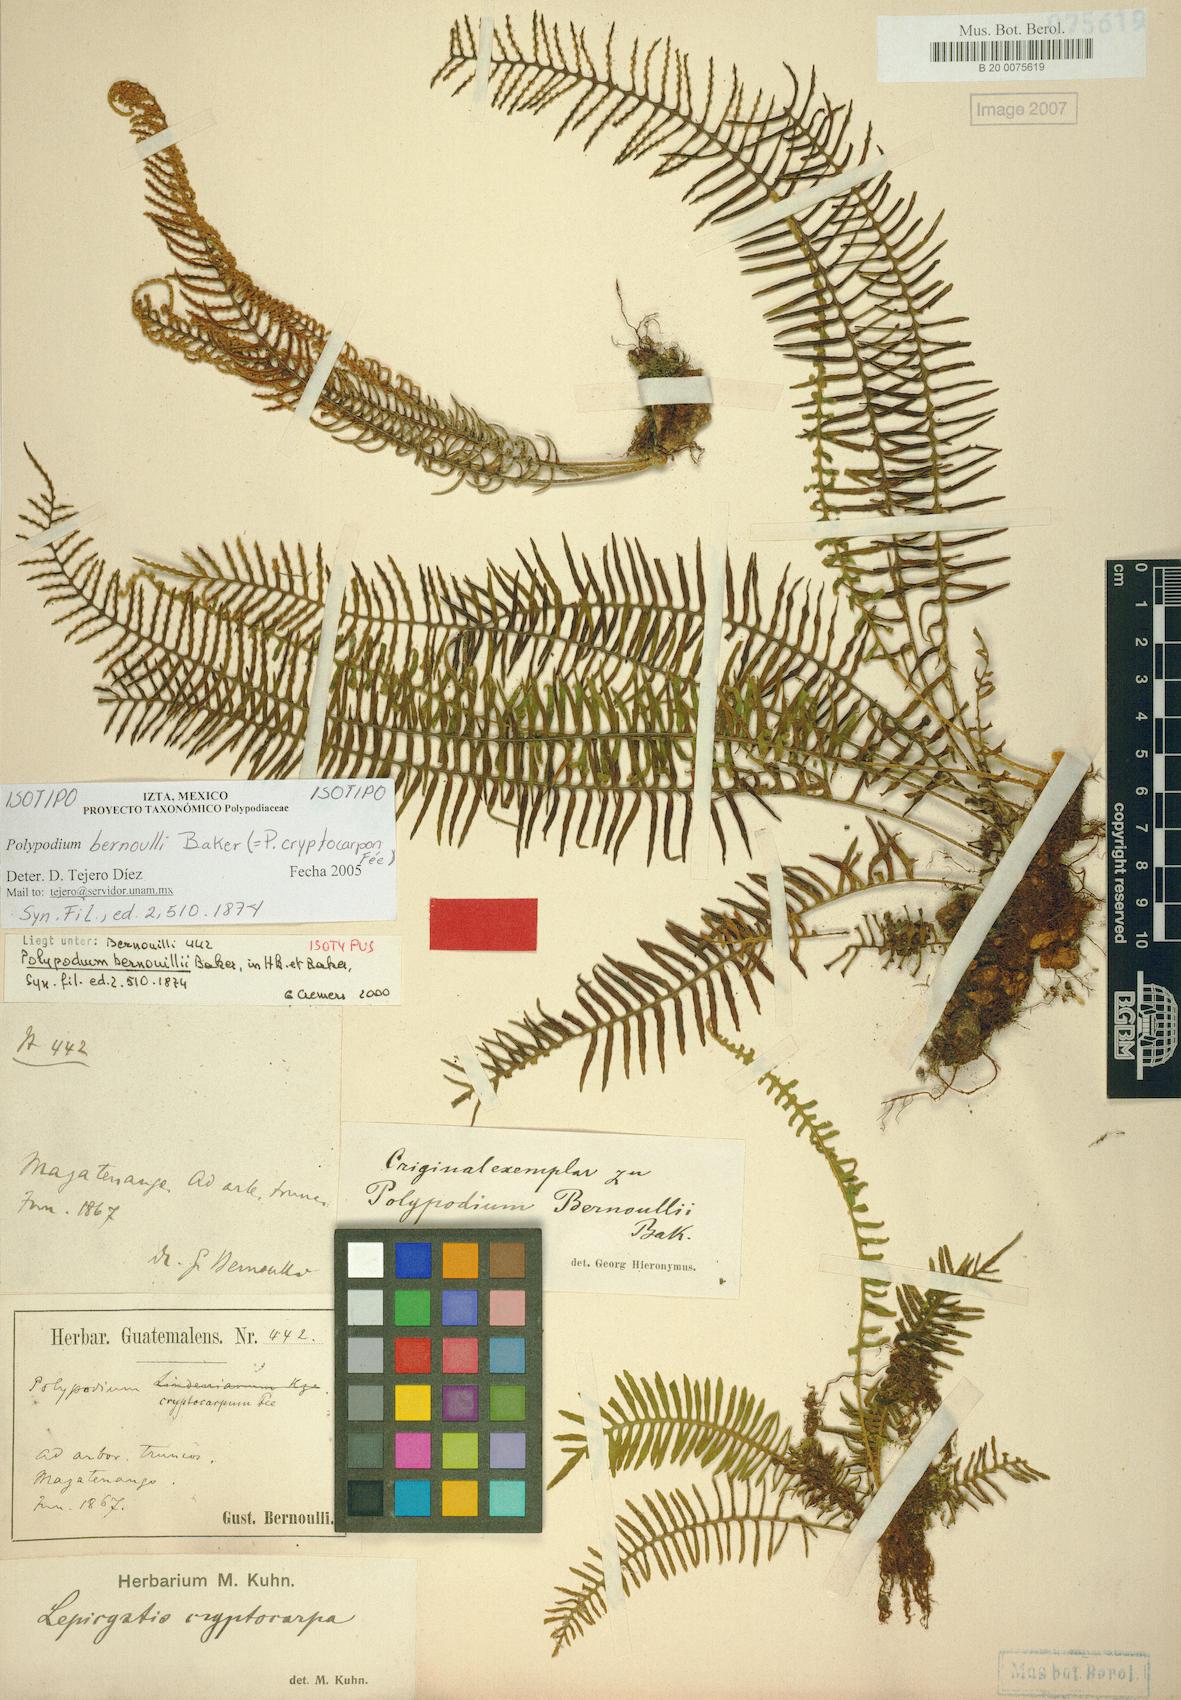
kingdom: Plantae
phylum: Tracheophyta
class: Polypodiopsida
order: Polypodiales
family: Polypodiaceae
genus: Pleopeltis
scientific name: Pleopeltis cryptocarpa
